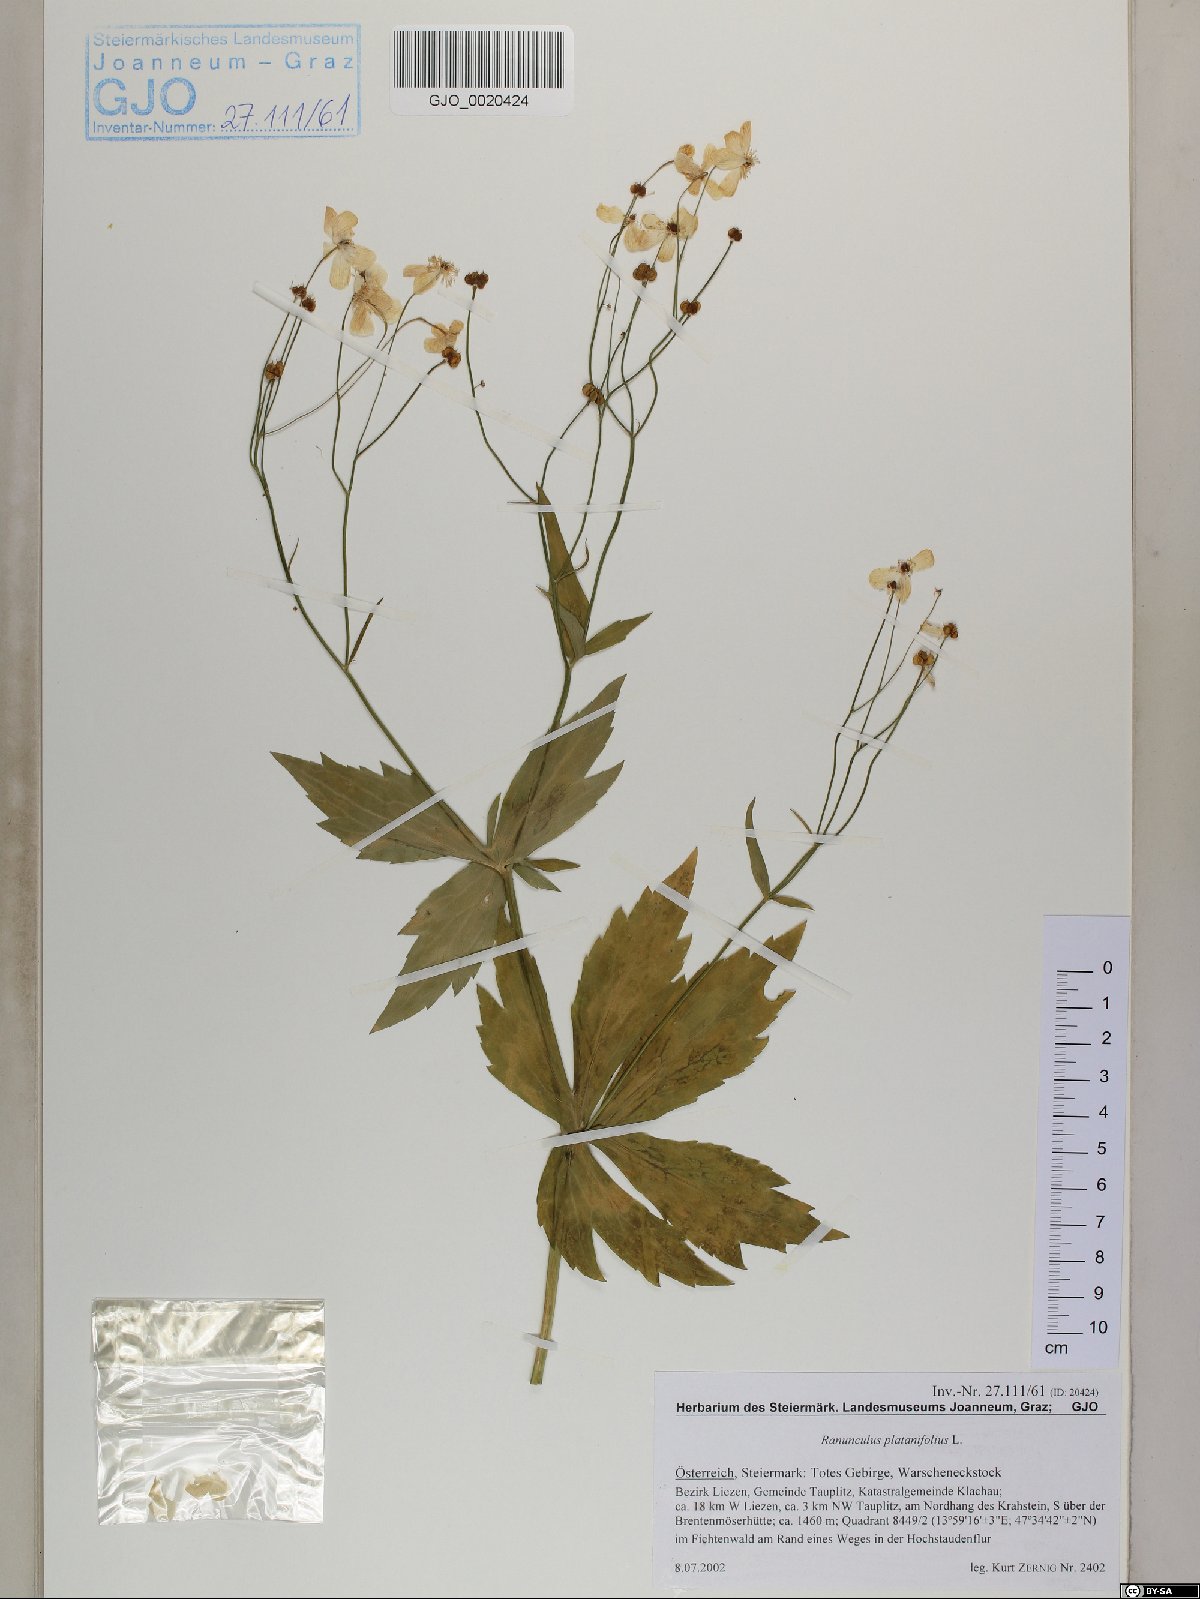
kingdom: Plantae
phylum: Tracheophyta
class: Magnoliopsida
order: Ranunculales
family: Ranunculaceae
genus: Ranunculus
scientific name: Ranunculus platanifolius
